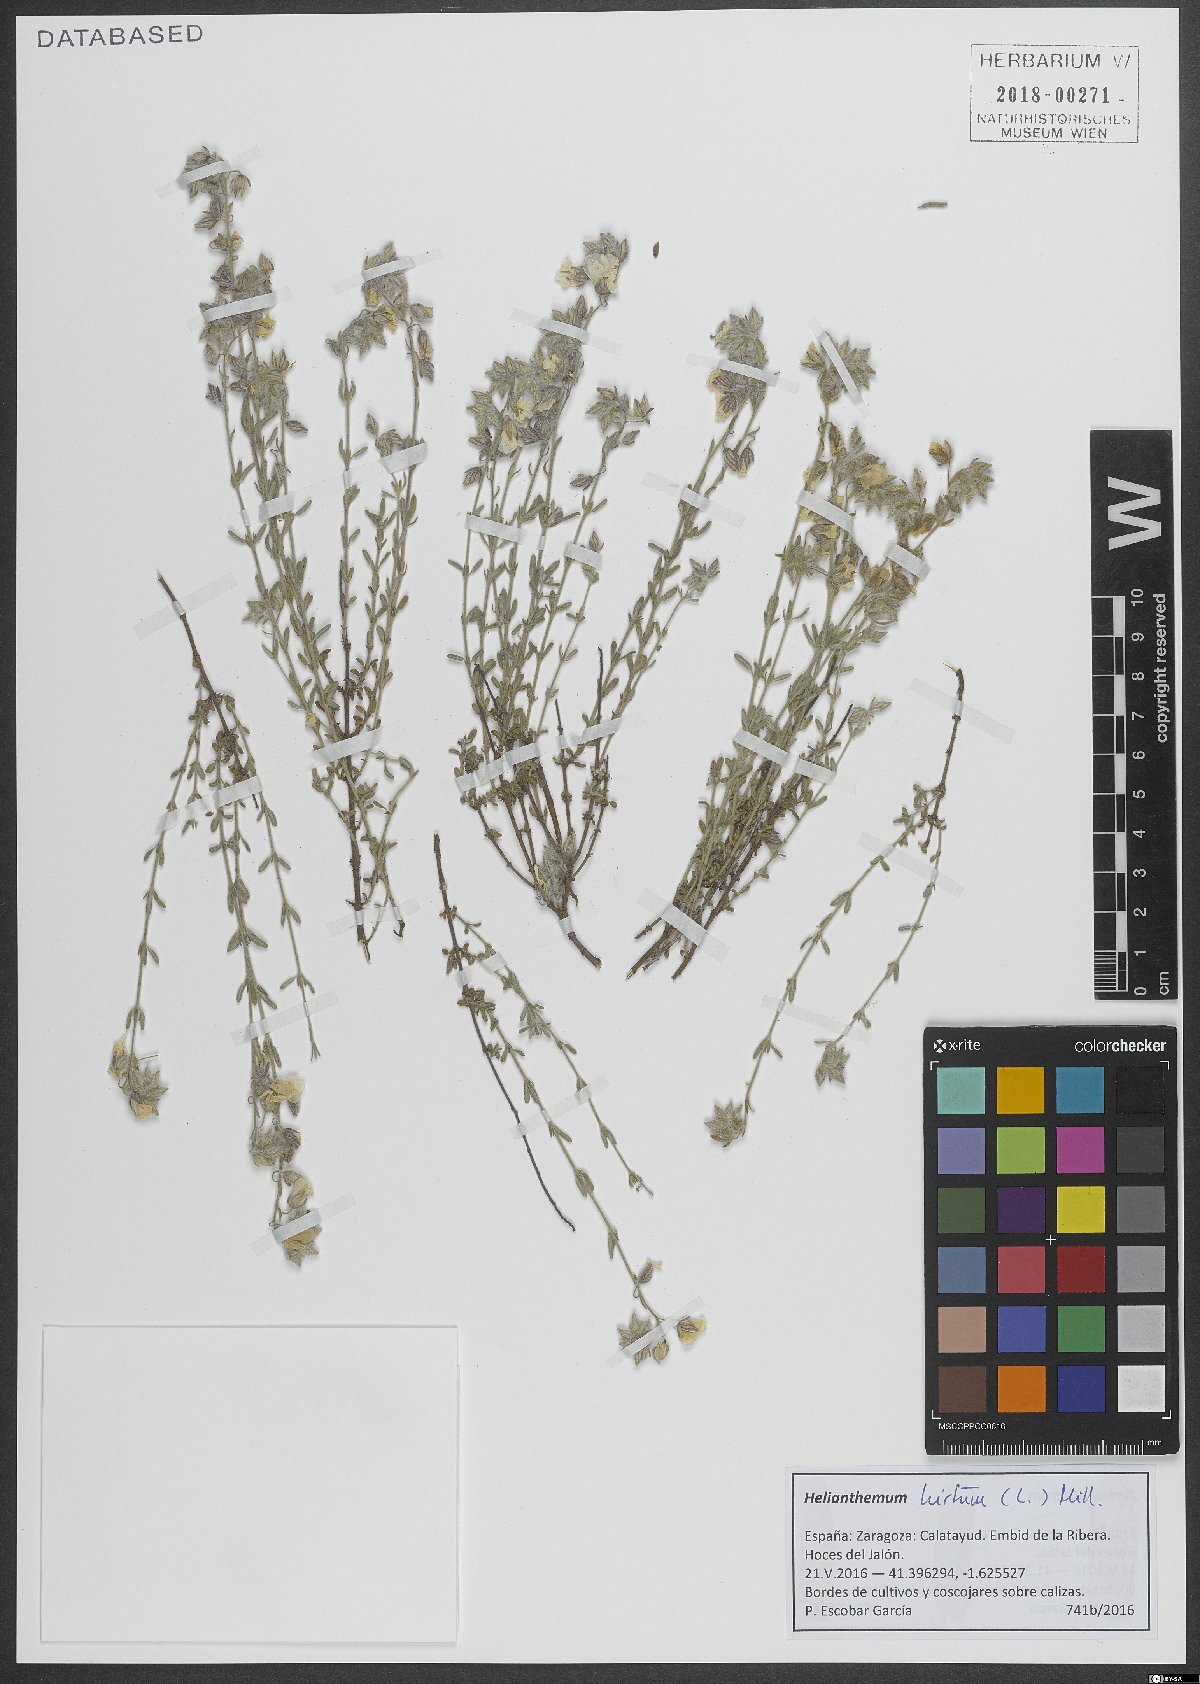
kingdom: Plantae
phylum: Tracheophyta
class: Magnoliopsida
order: Malvales
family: Cistaceae
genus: Helianthemum
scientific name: Helianthemum hirtum
